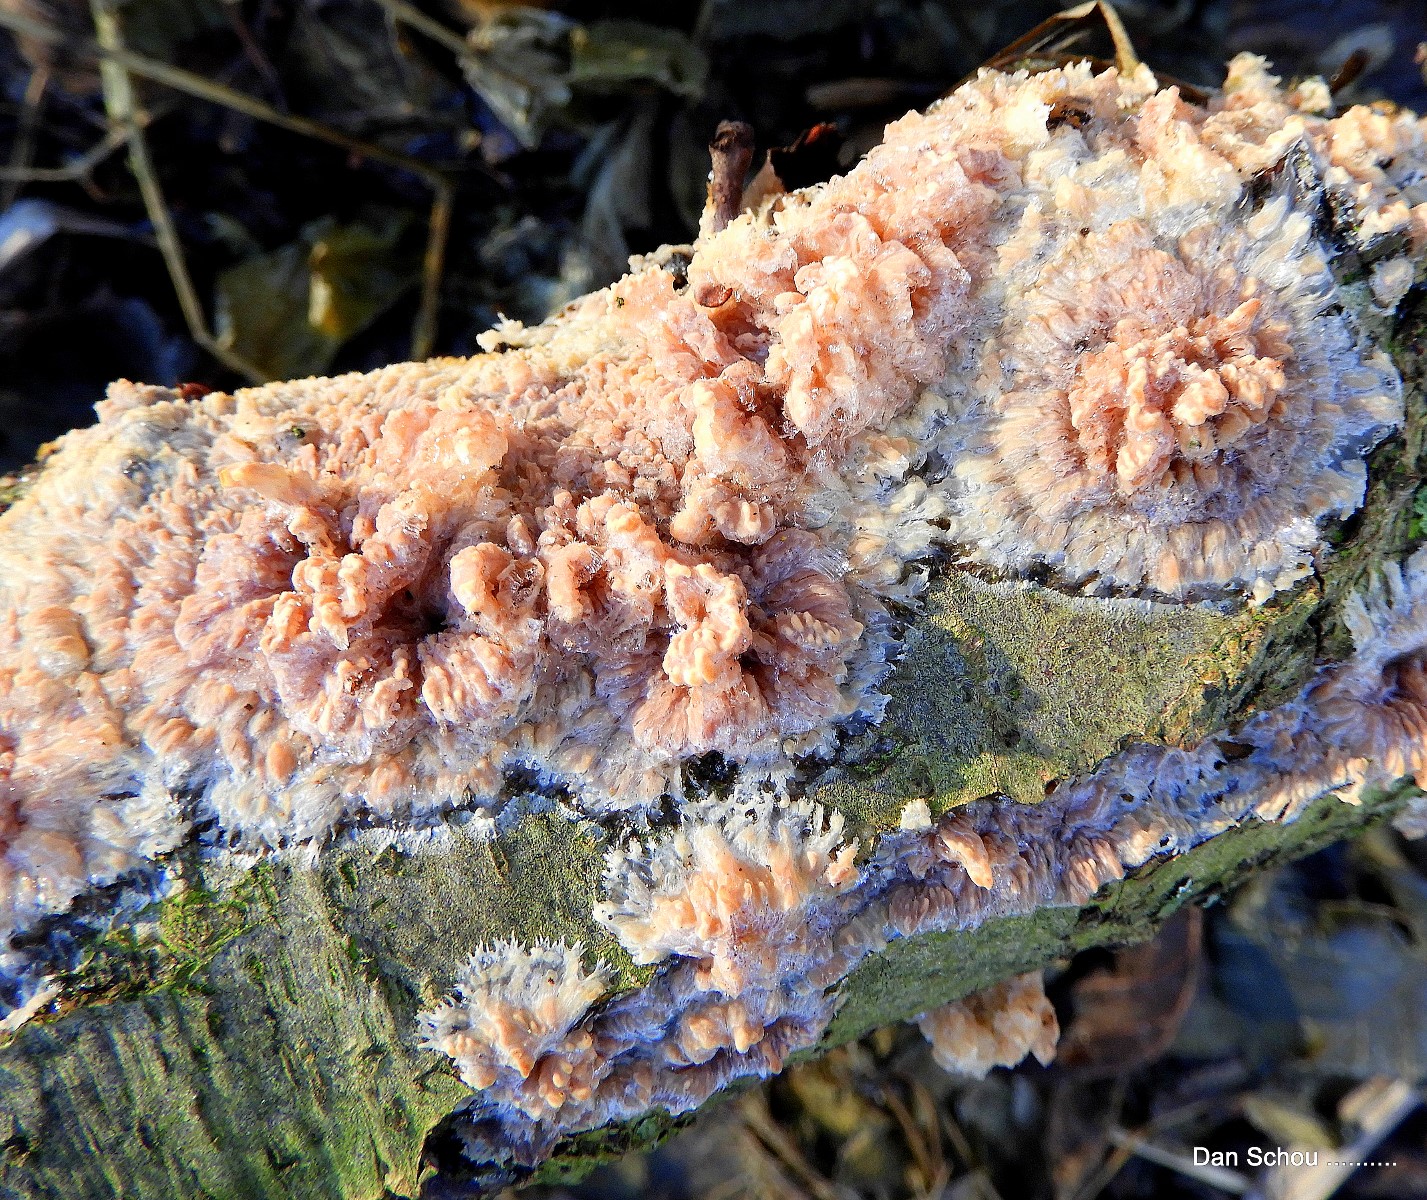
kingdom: Fungi
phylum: Basidiomycota
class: Agaricomycetes
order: Polyporales
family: Meruliaceae
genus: Phlebia
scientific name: Phlebia radiata
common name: stråle-åresvamp
